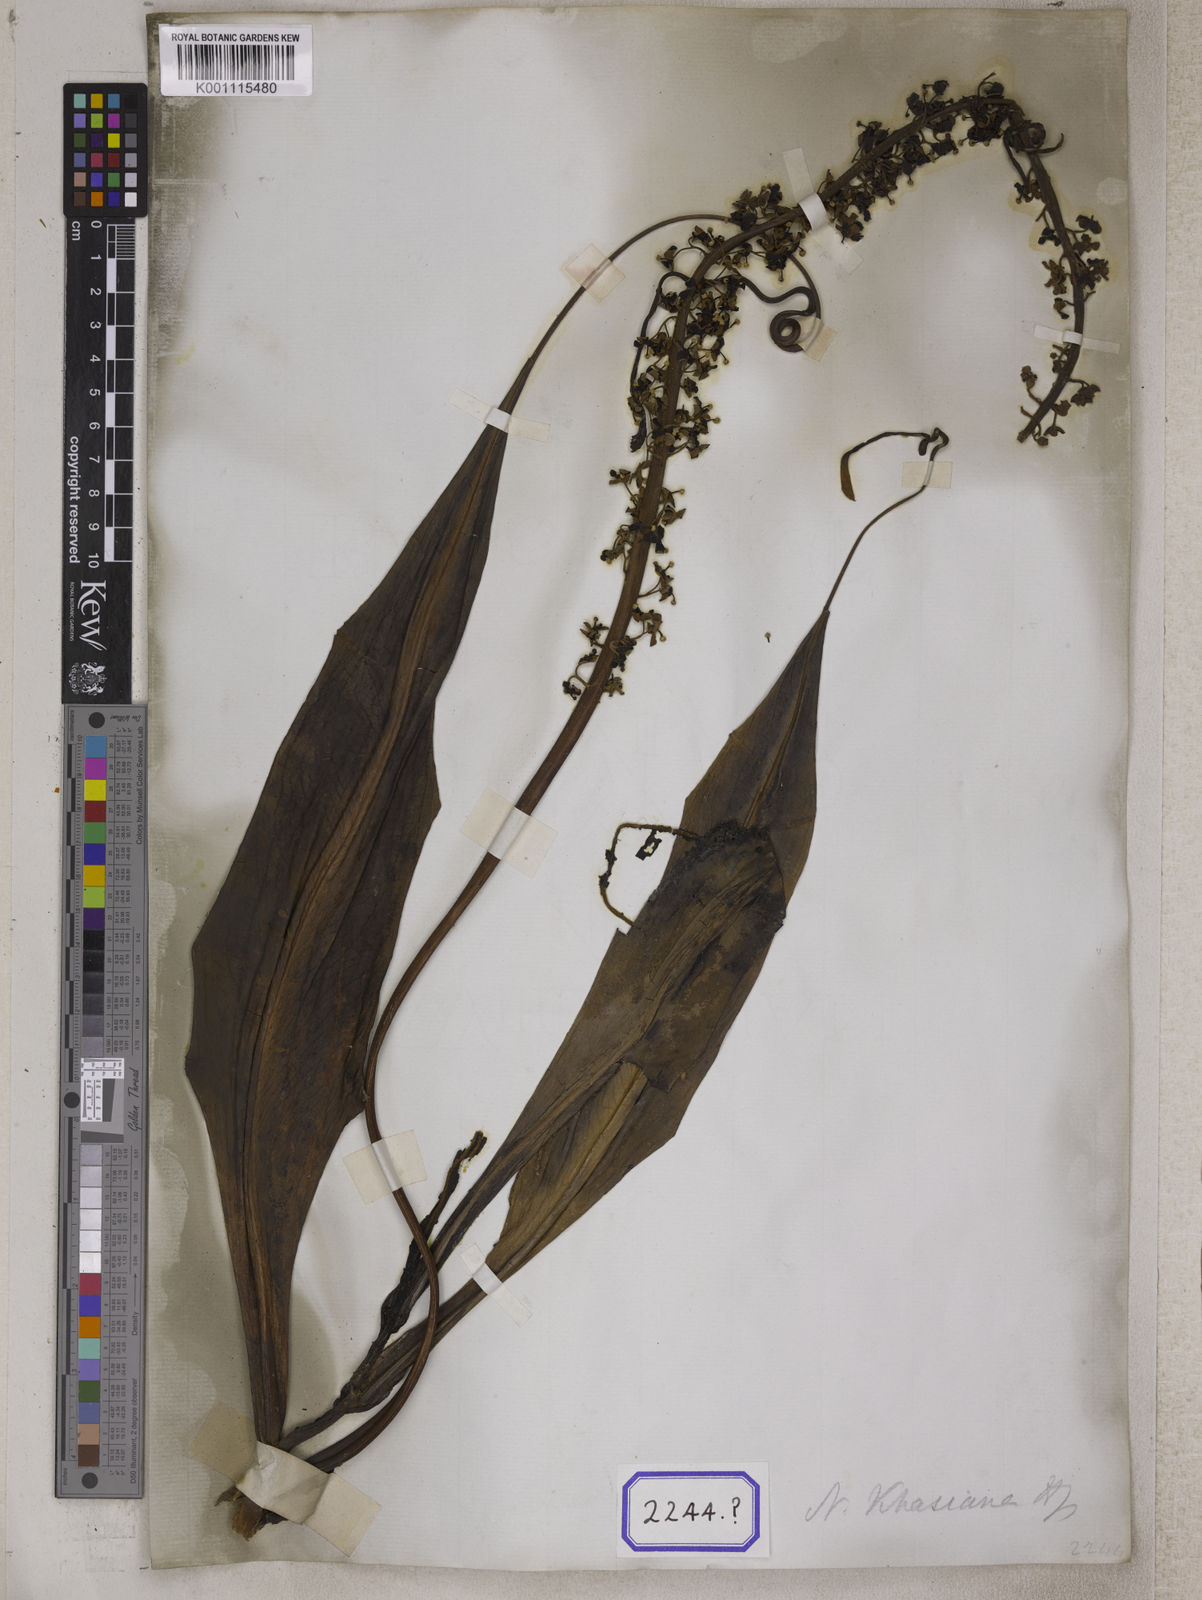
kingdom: Plantae
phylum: Tracheophyta
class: Magnoliopsida
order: Caryophyllales
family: Nepenthaceae
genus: Nepenthes
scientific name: Nepenthes distillatoria
